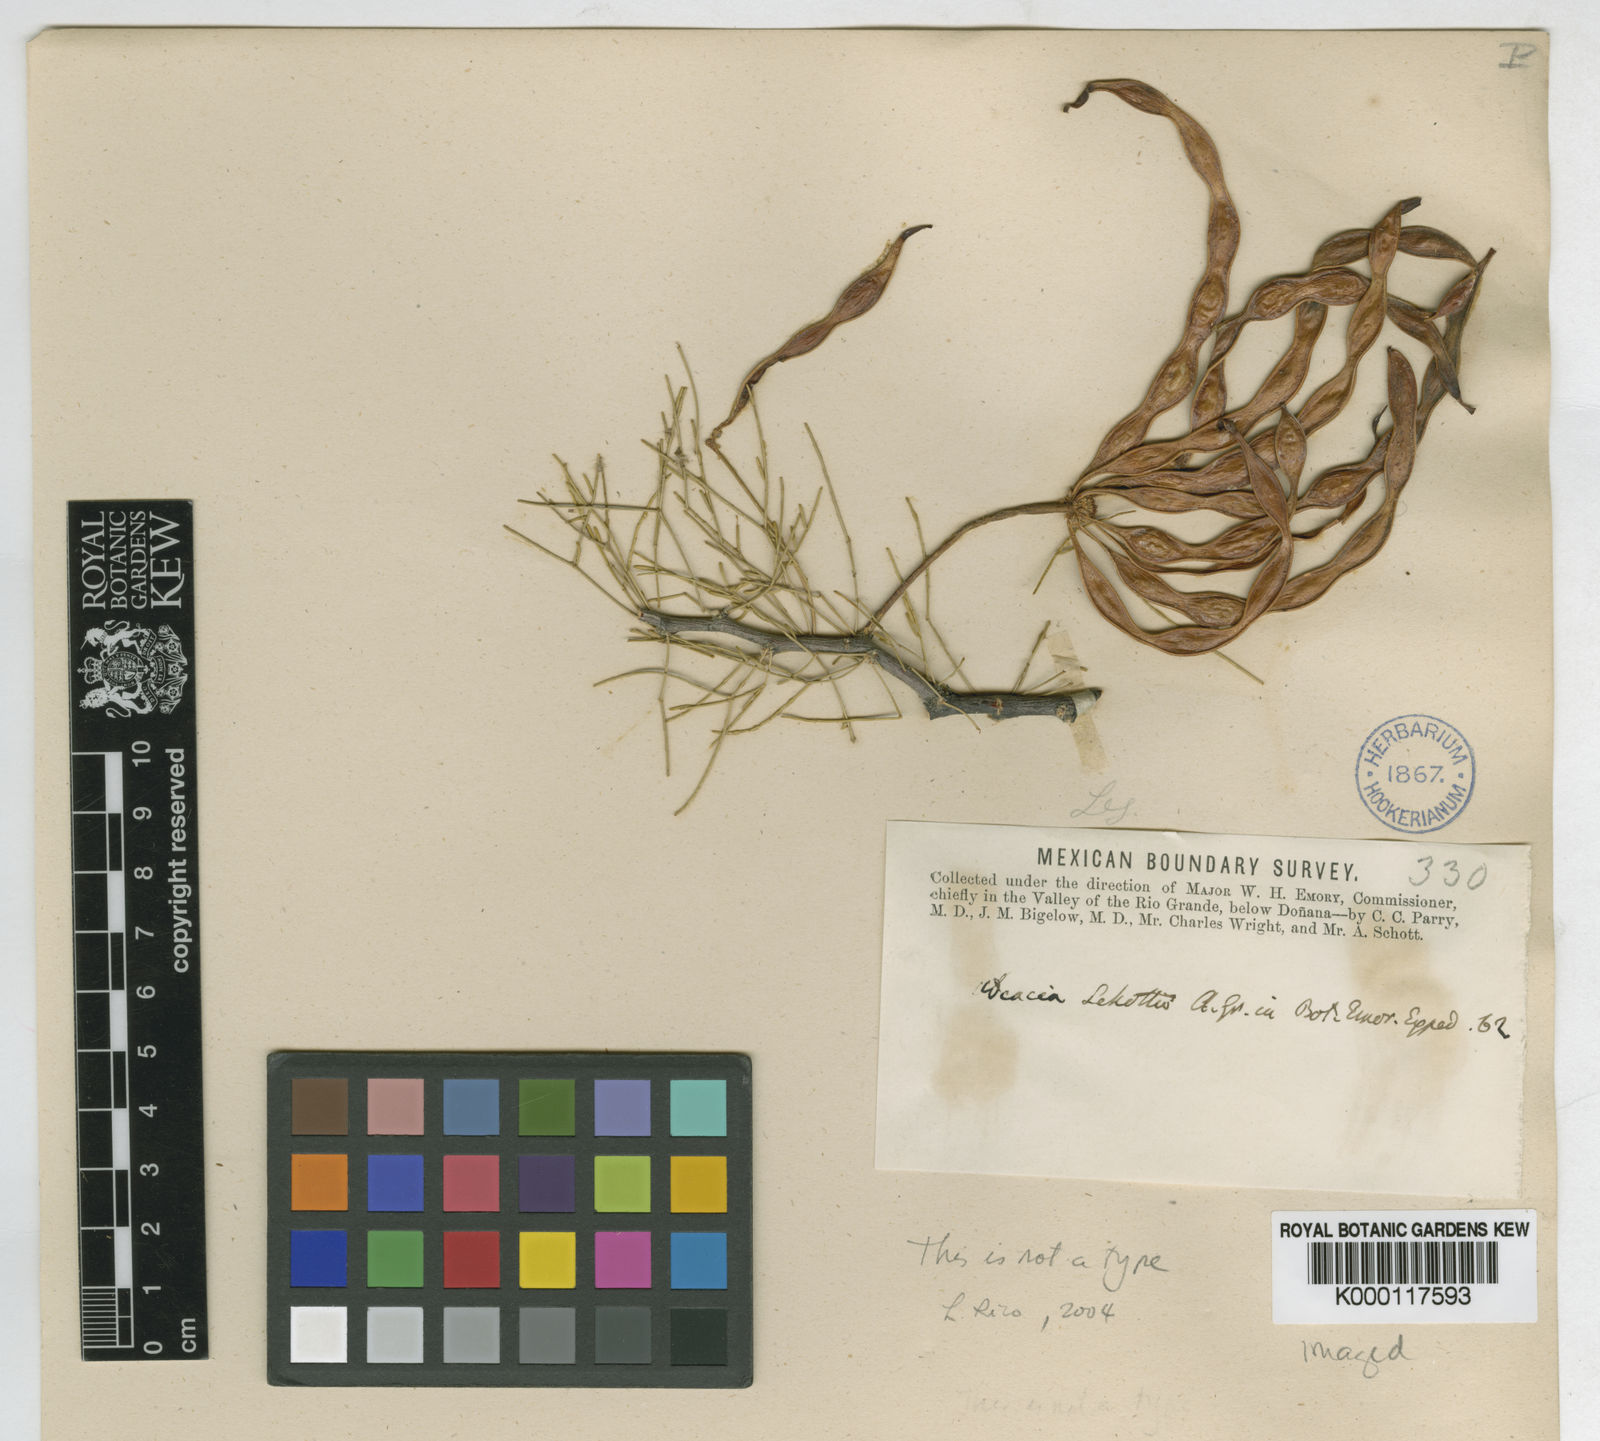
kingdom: Plantae
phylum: Tracheophyta
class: Magnoliopsida
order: Fabales
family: Fabaceae
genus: Acacia
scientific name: Acacia
